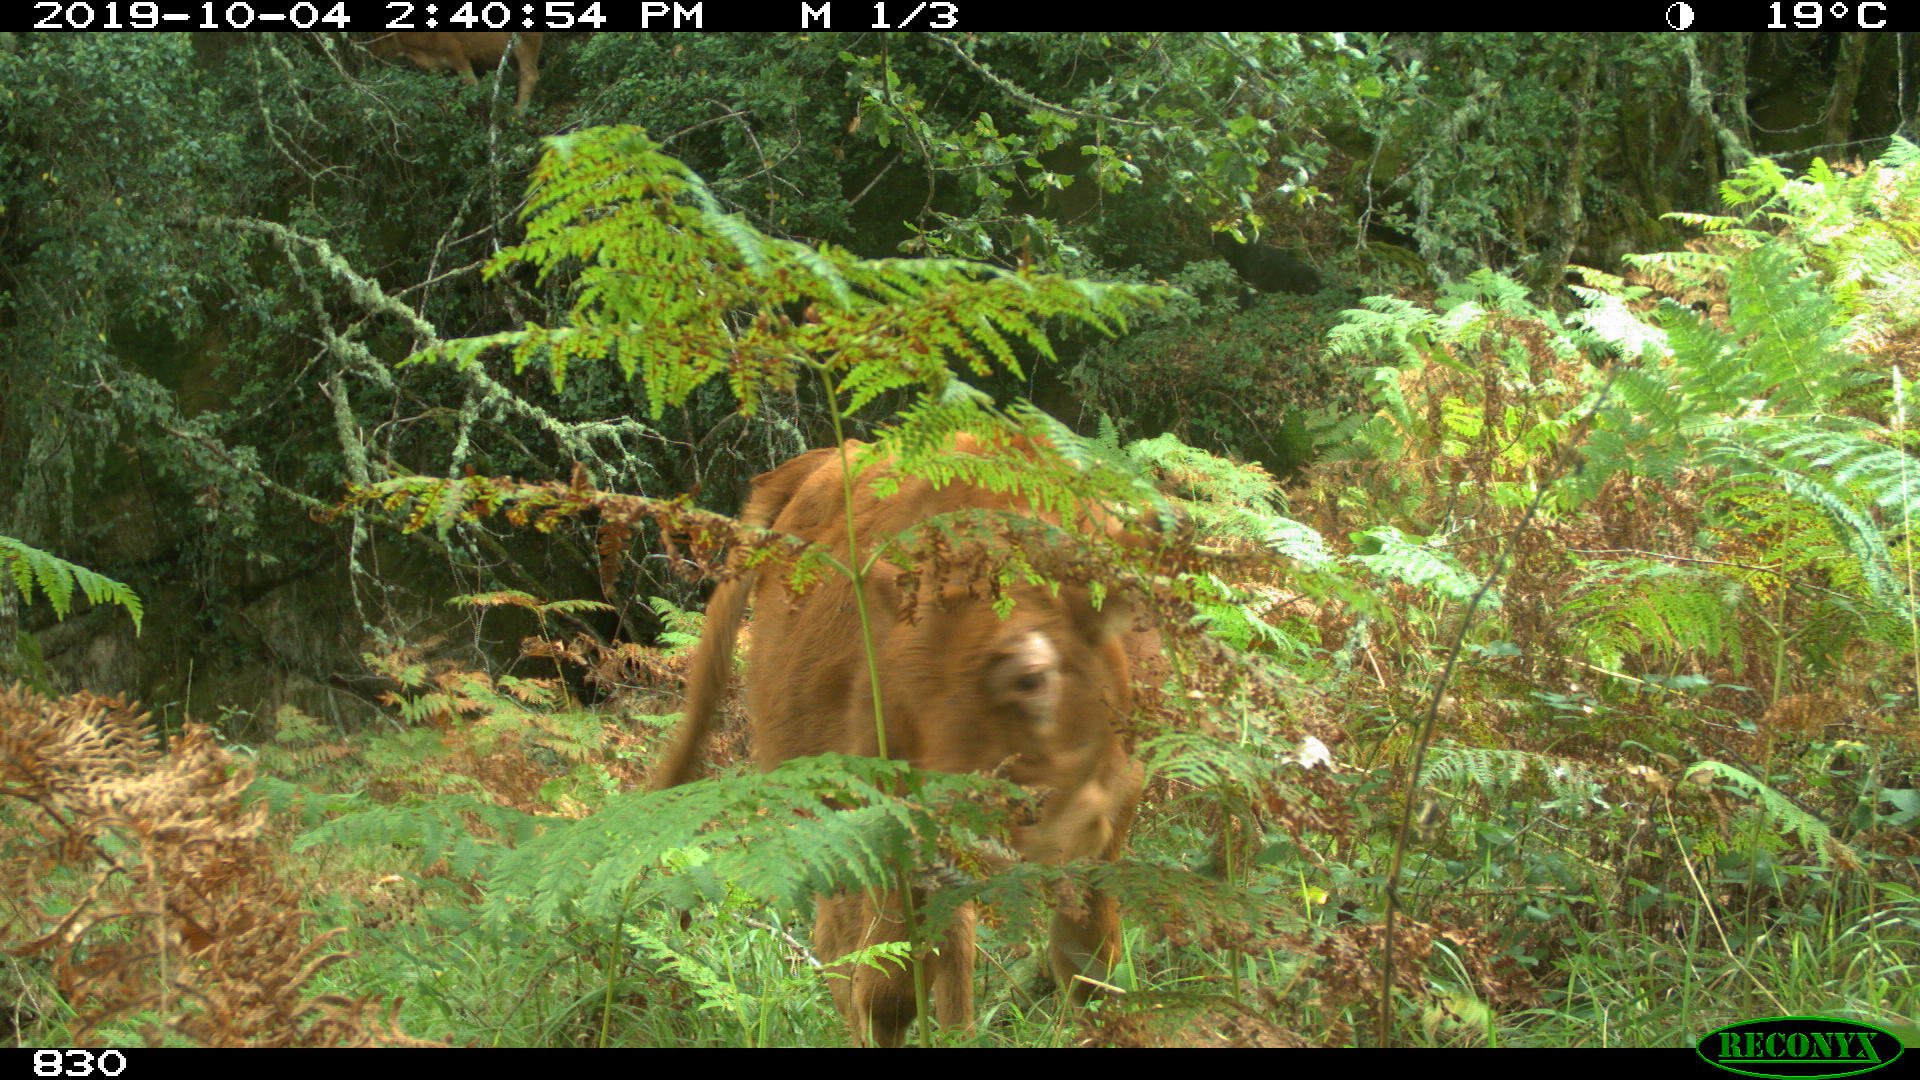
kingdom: Animalia
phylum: Chordata
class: Mammalia
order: Artiodactyla
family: Bovidae
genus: Bos
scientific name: Bos taurus
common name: Domesticated cattle
